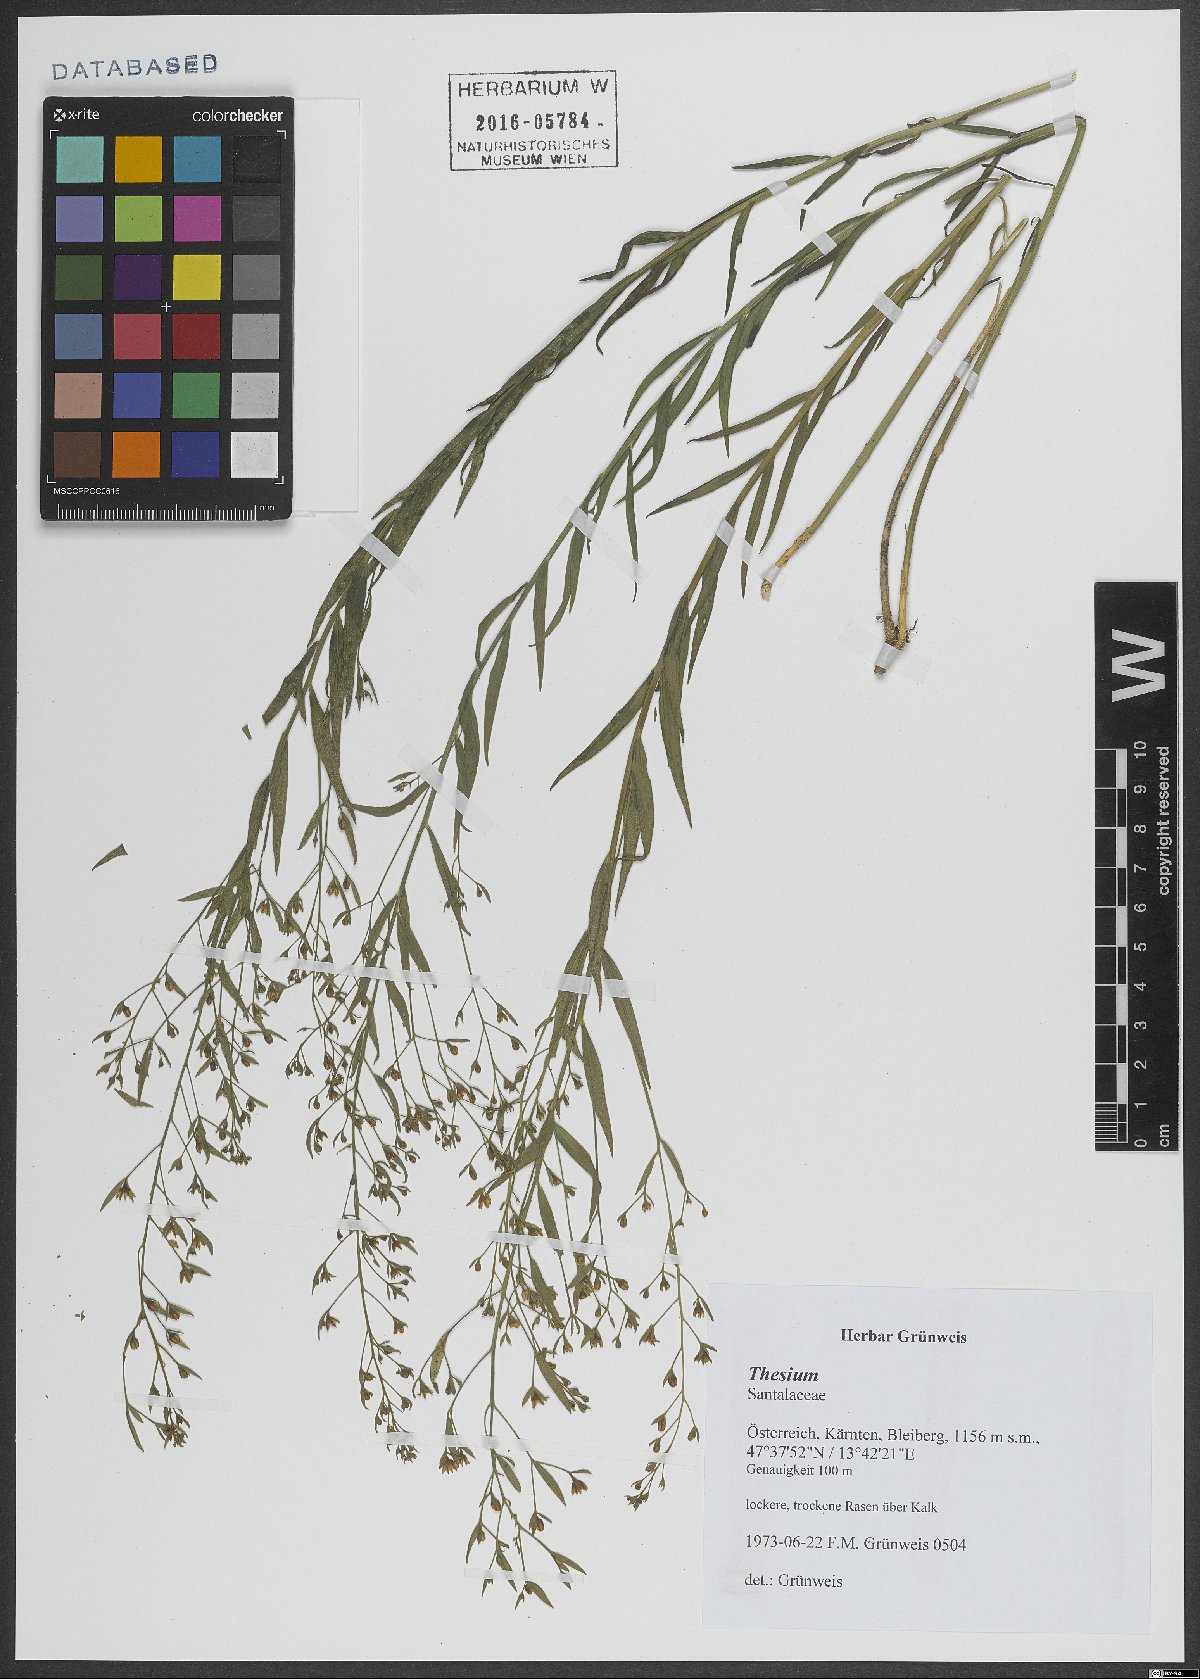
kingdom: Plantae
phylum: Tracheophyta
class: Magnoliopsida
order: Santalales
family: Thesiaceae
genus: Thesium
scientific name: Thesium
